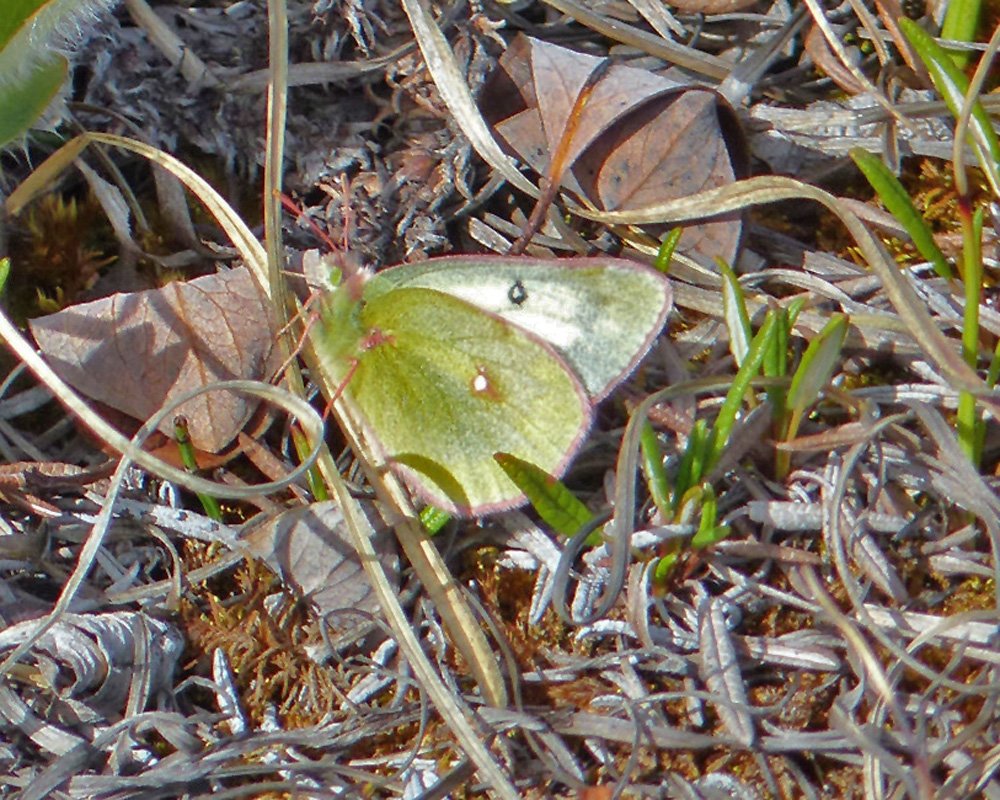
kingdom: Animalia
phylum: Arthropoda
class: Insecta
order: Lepidoptera
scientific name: Lepidoptera
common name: Butterflies
